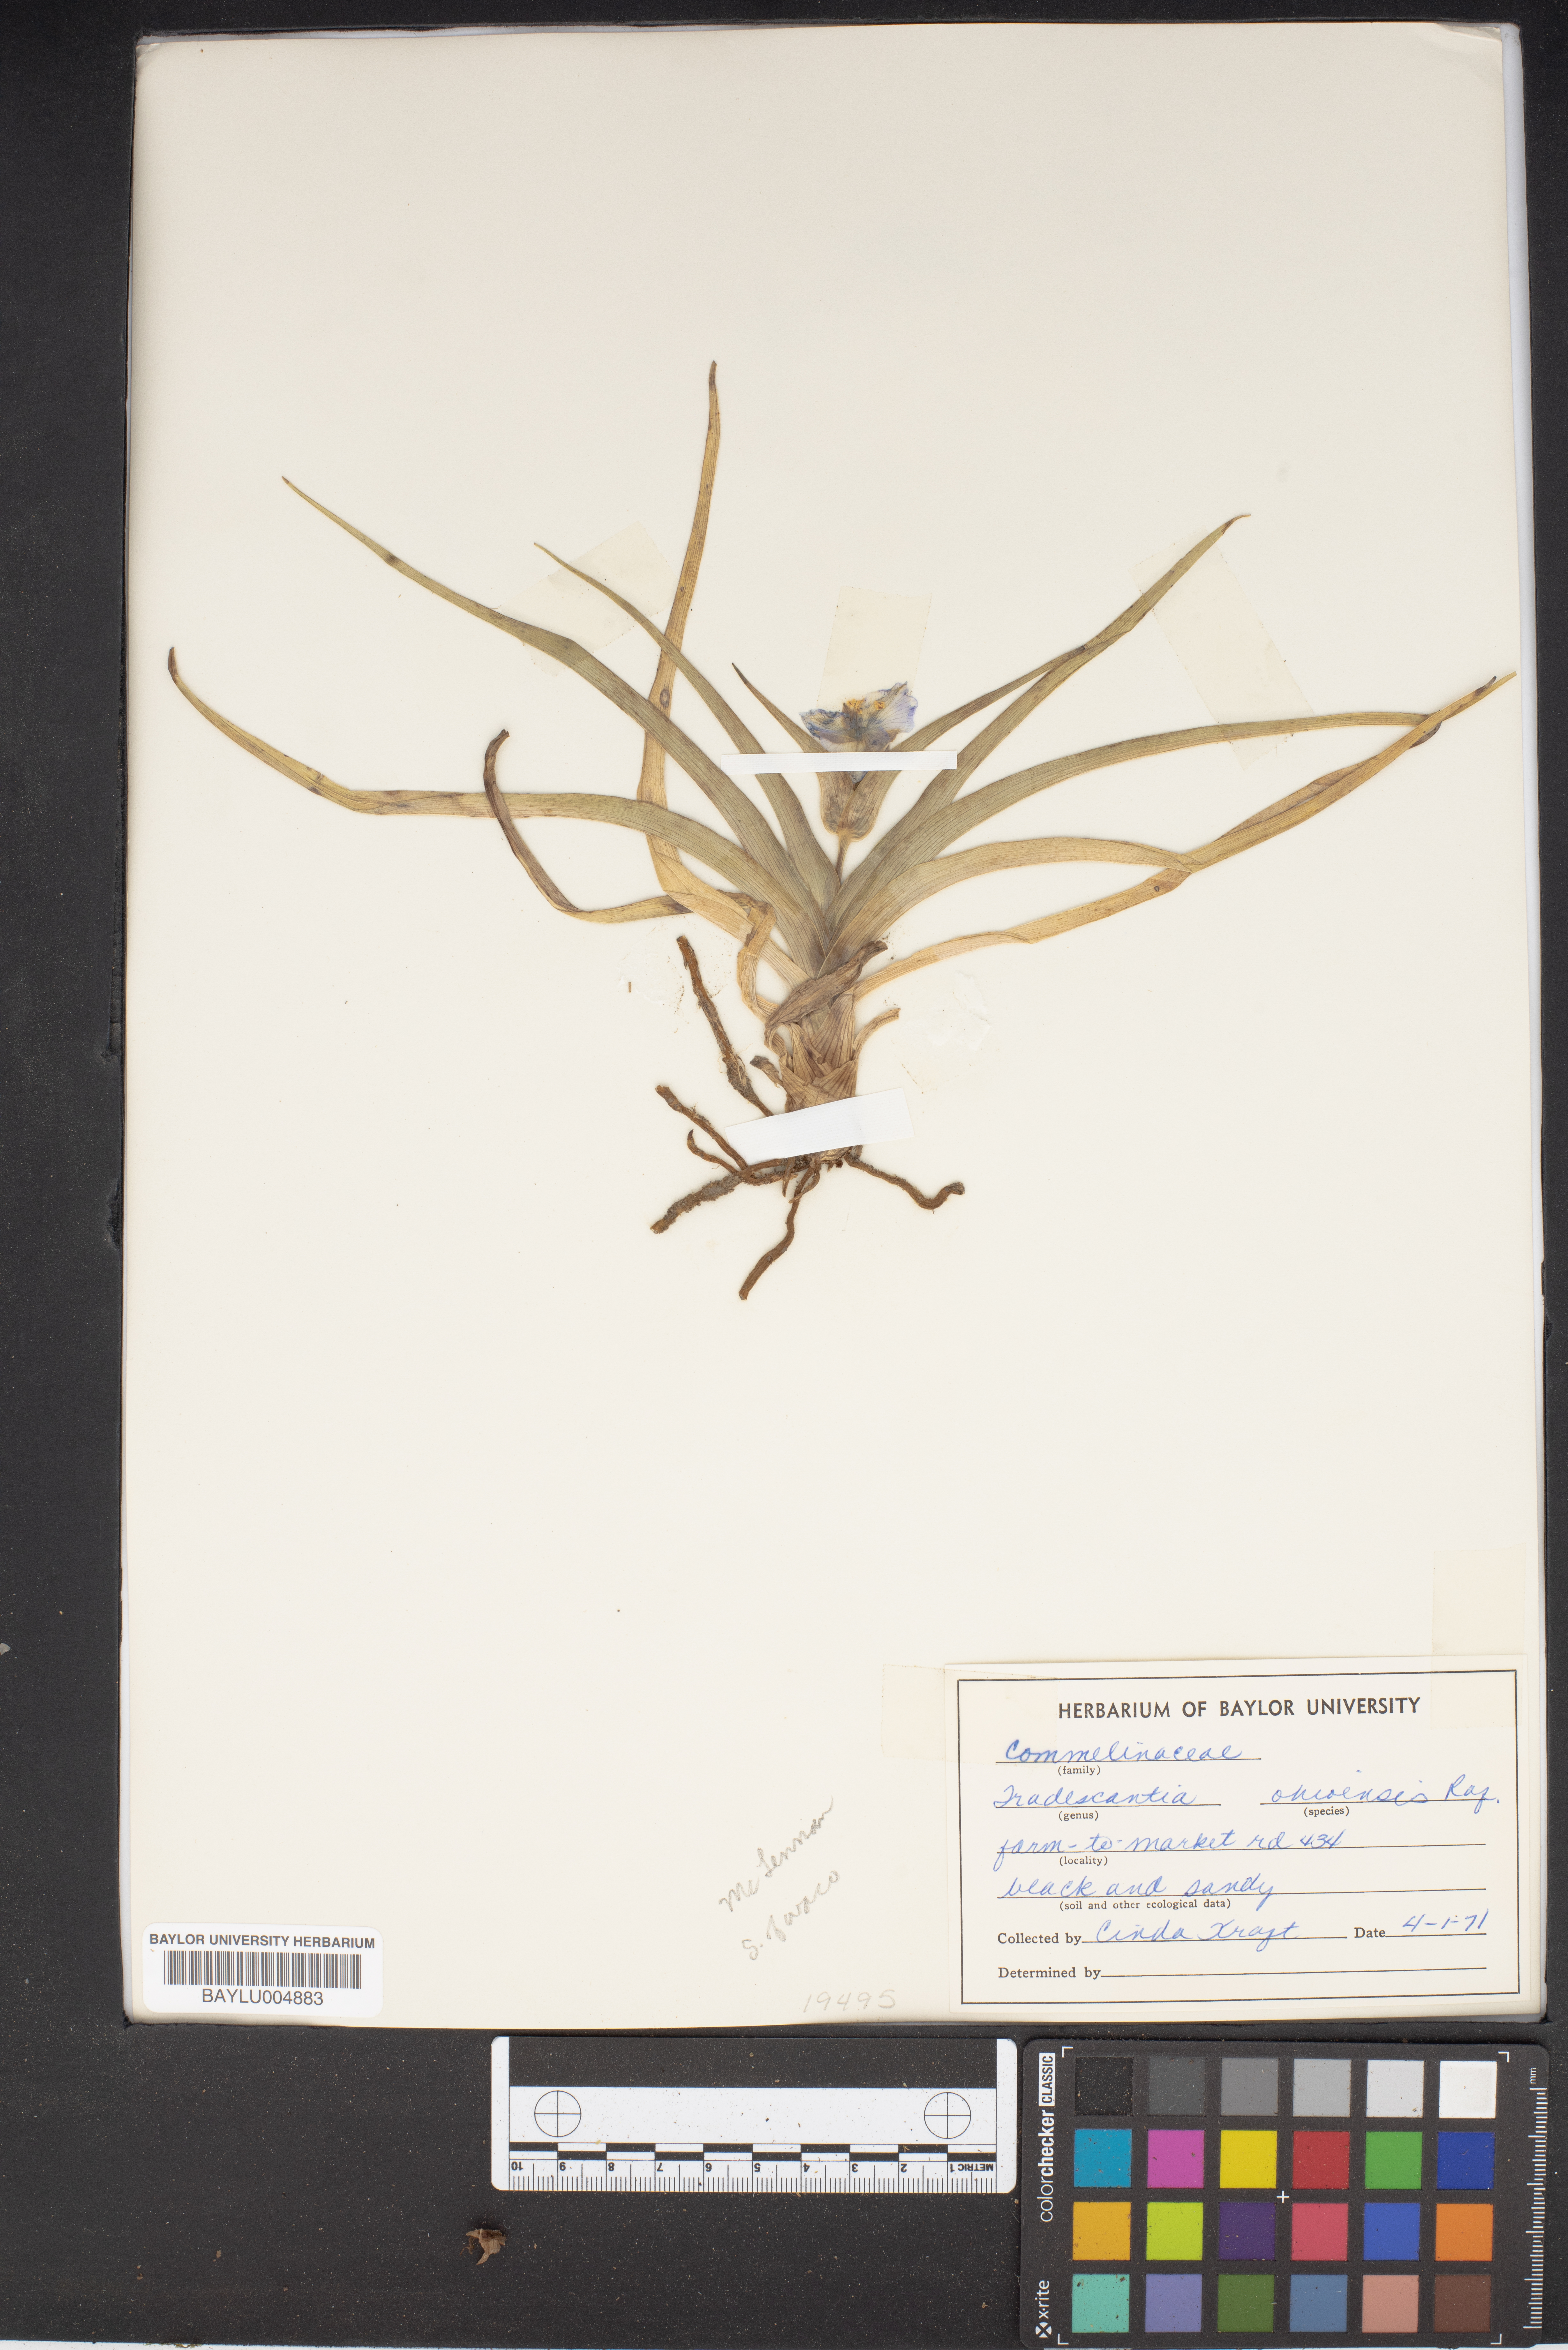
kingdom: Plantae
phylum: Tracheophyta
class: Liliopsida
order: Commelinales
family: Commelinaceae
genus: Tradescantia
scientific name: Tradescantia ohiensis
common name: Ohio spiderwort
